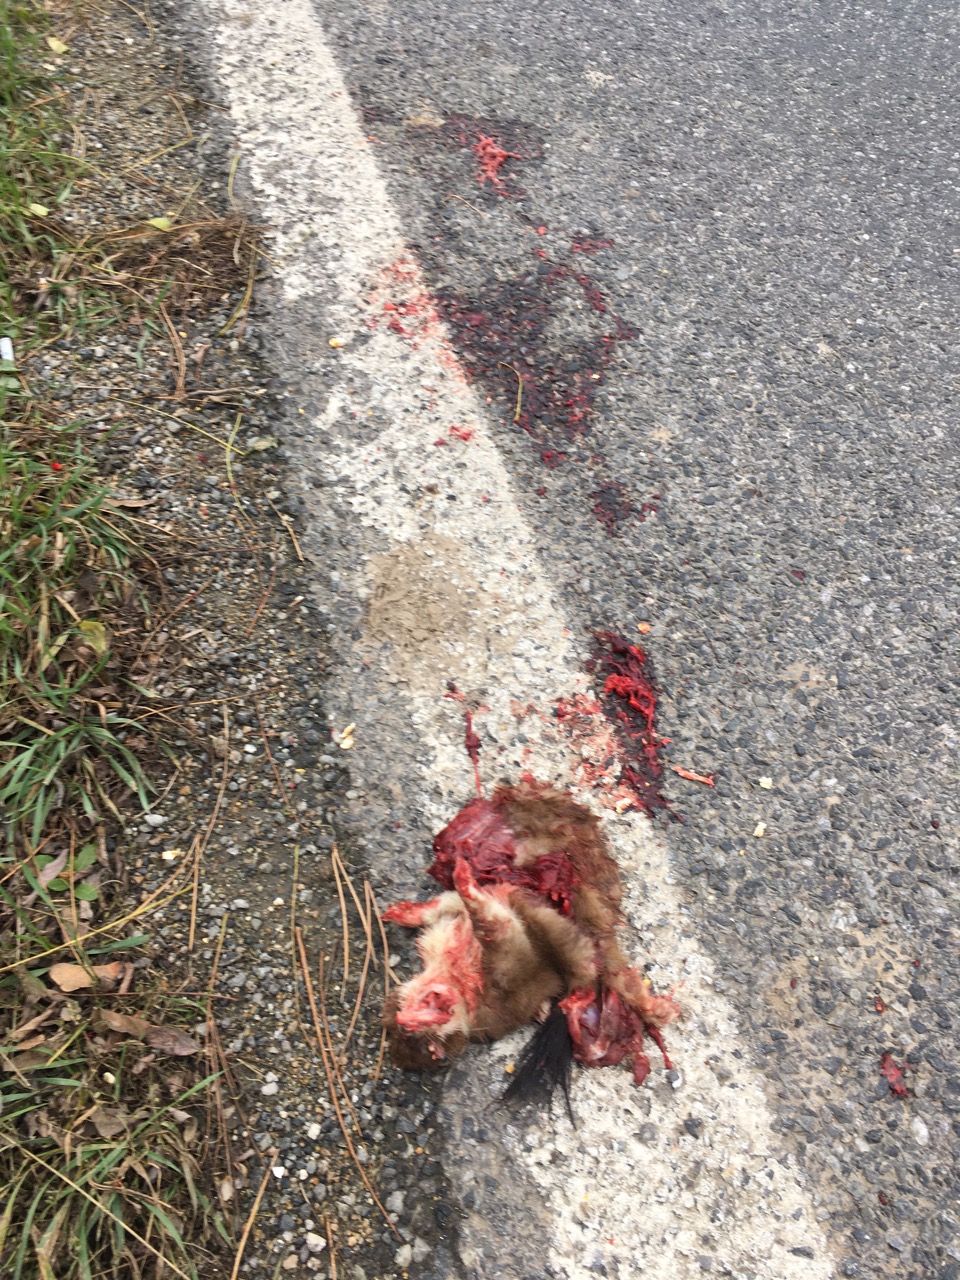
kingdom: Animalia
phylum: Chordata
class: Mammalia
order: Carnivora
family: Mustelidae
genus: Mustela
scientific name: Mustela erminea
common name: Stoat
